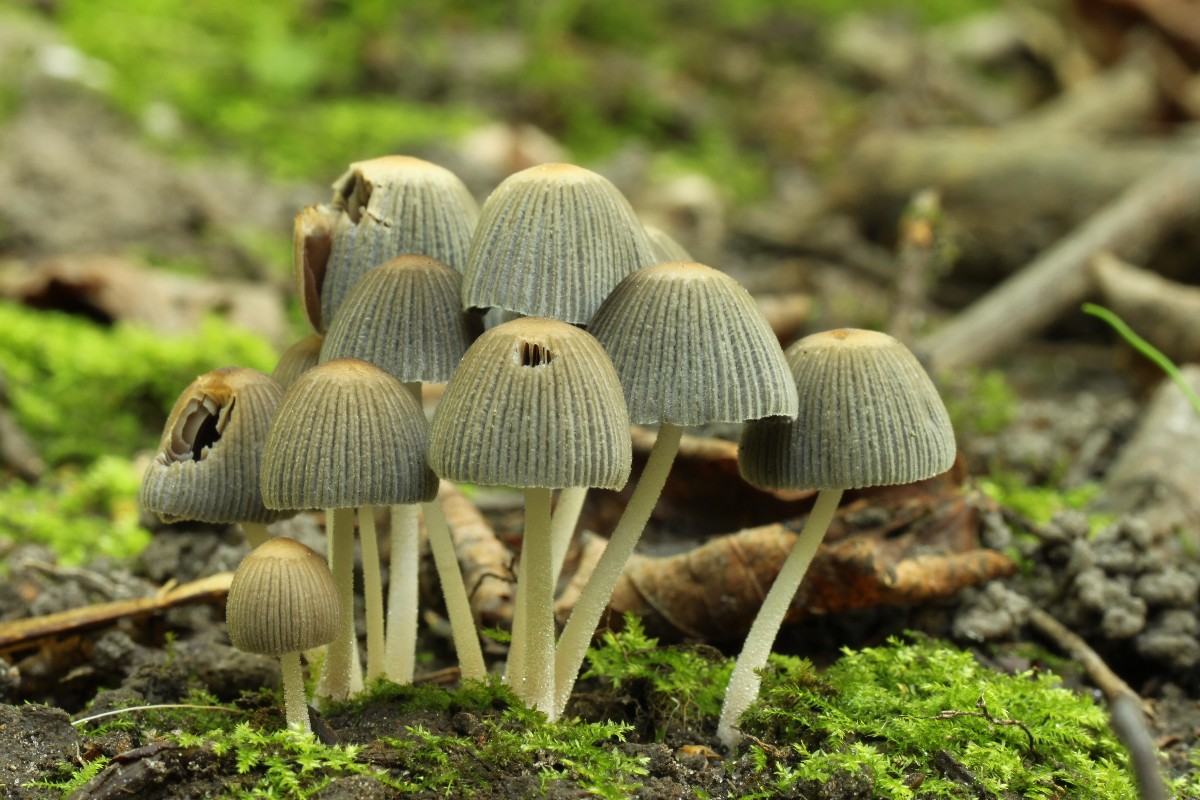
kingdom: Fungi
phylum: Basidiomycota
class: Agaricomycetes
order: Agaricales
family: Psathyrellaceae
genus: Coprinellus
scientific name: Coprinellus
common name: blækhat
